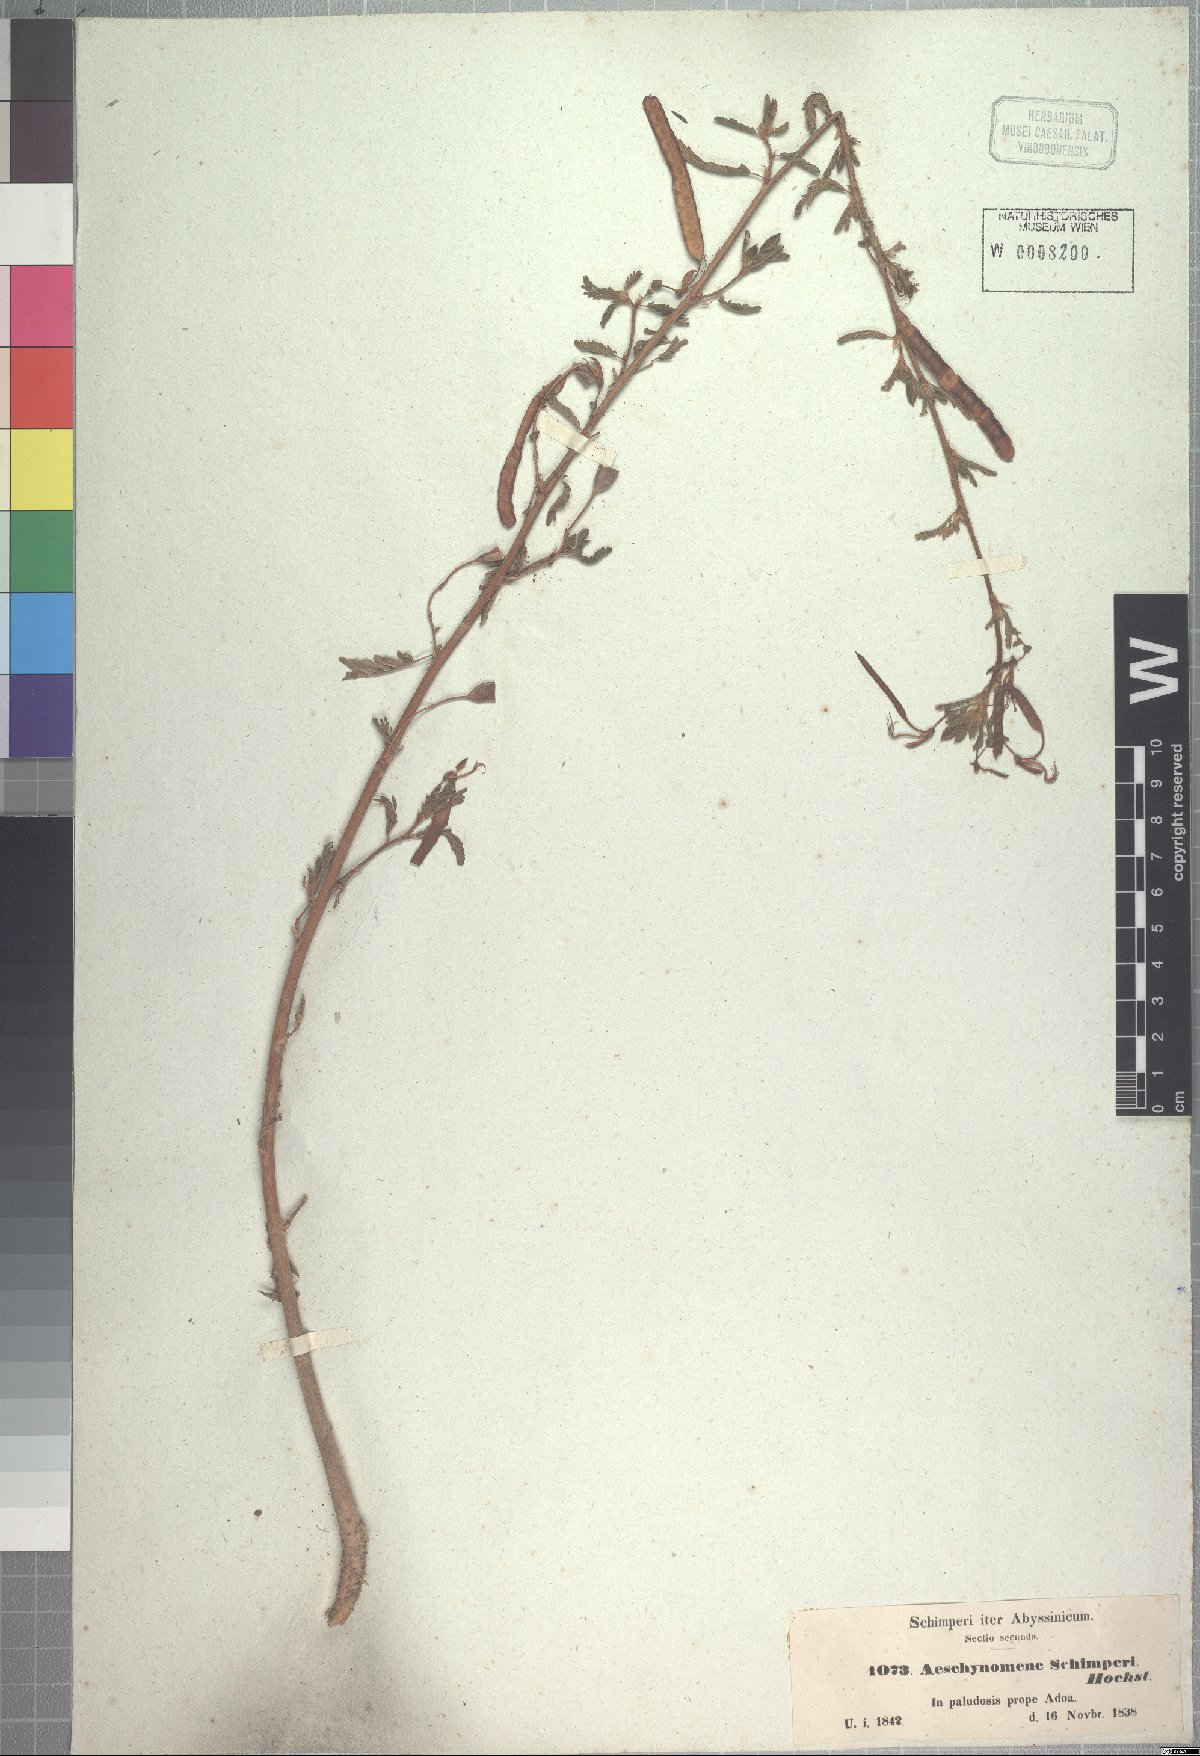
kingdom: Plantae
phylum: Tracheophyta
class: Magnoliopsida
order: Fabales
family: Fabaceae
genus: Aeschynomene
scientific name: Aeschynomene schimperi
